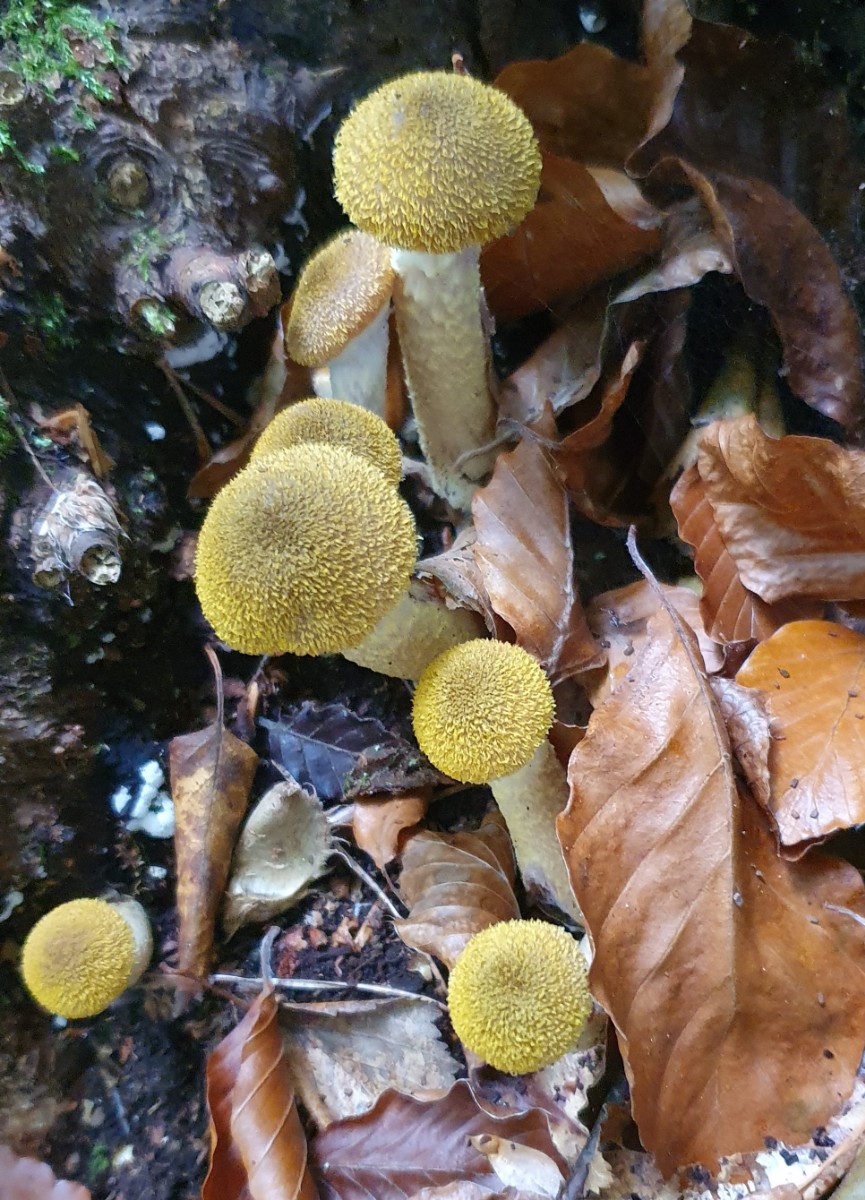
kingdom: Fungi
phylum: Basidiomycota
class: Agaricomycetes
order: Agaricales
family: Physalacriaceae
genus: Armillaria
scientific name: Armillaria lutea
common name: køllestokket honningsvamp
